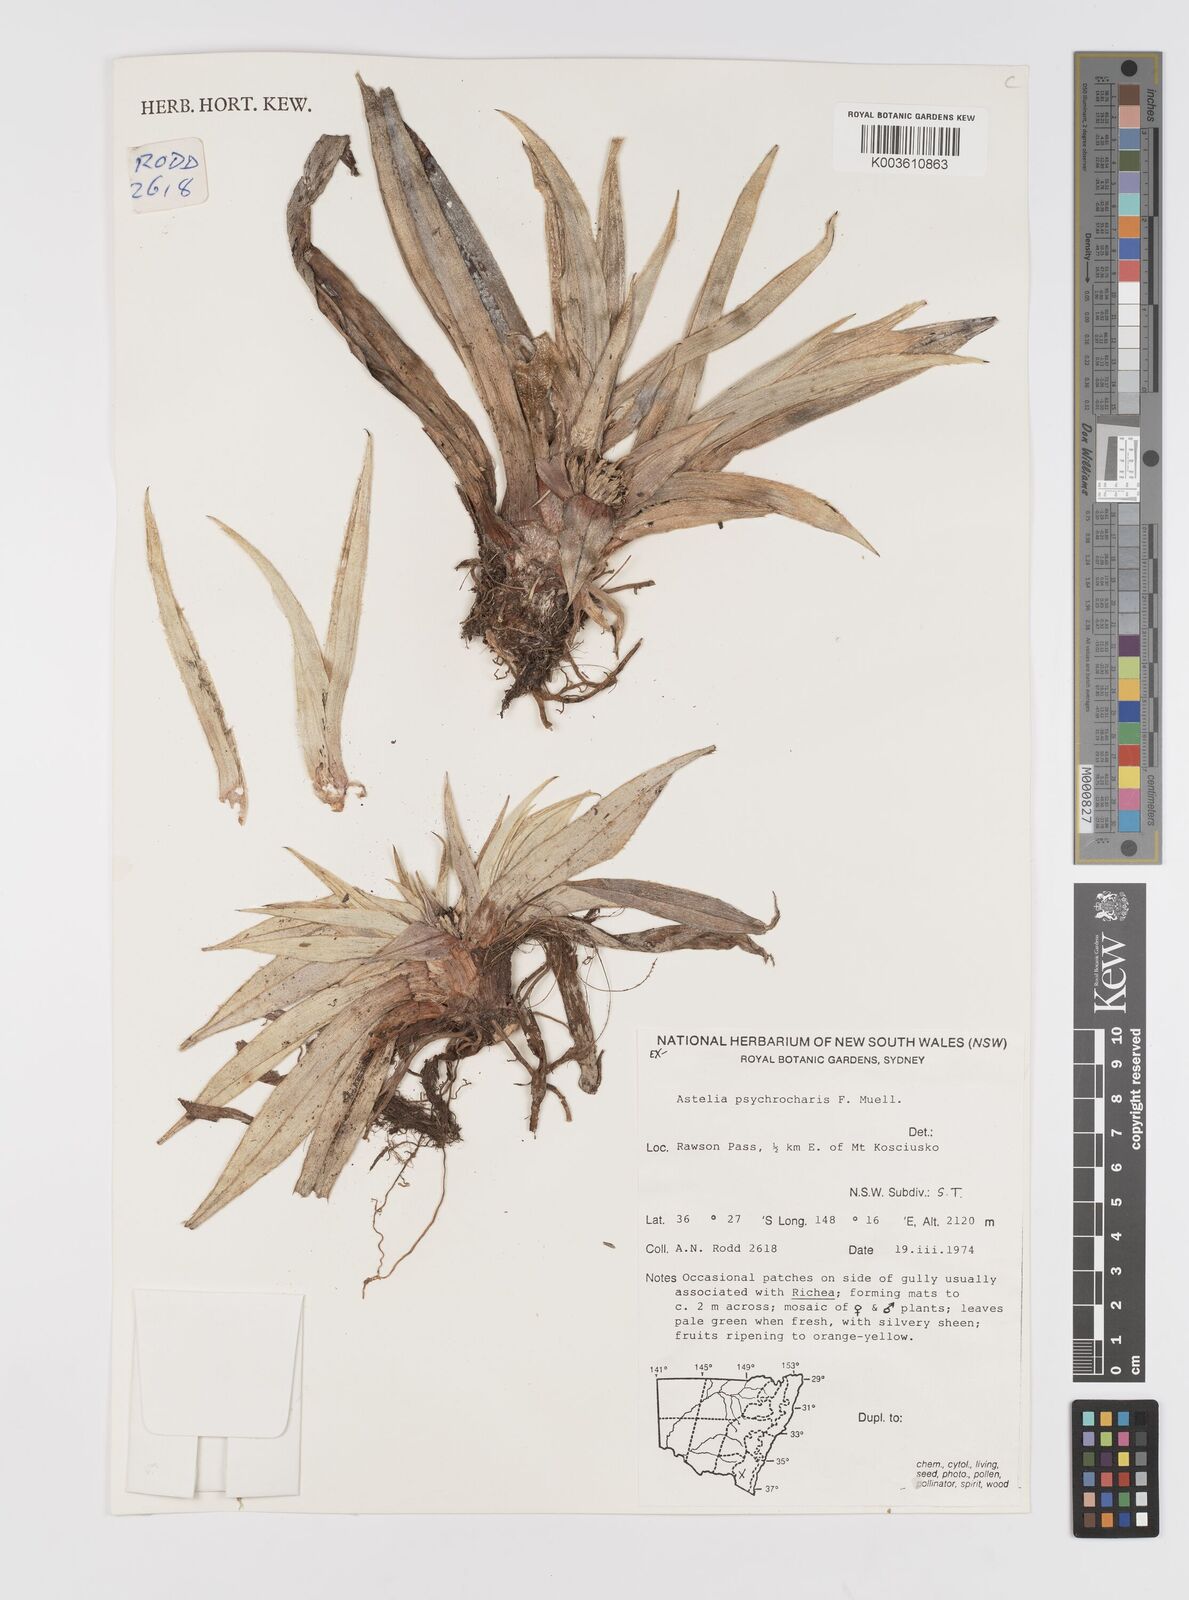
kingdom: Plantae
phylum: Tracheophyta
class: Liliopsida
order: Asparagales
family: Asteliaceae
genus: Astelia
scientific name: Astelia psychrocharis
